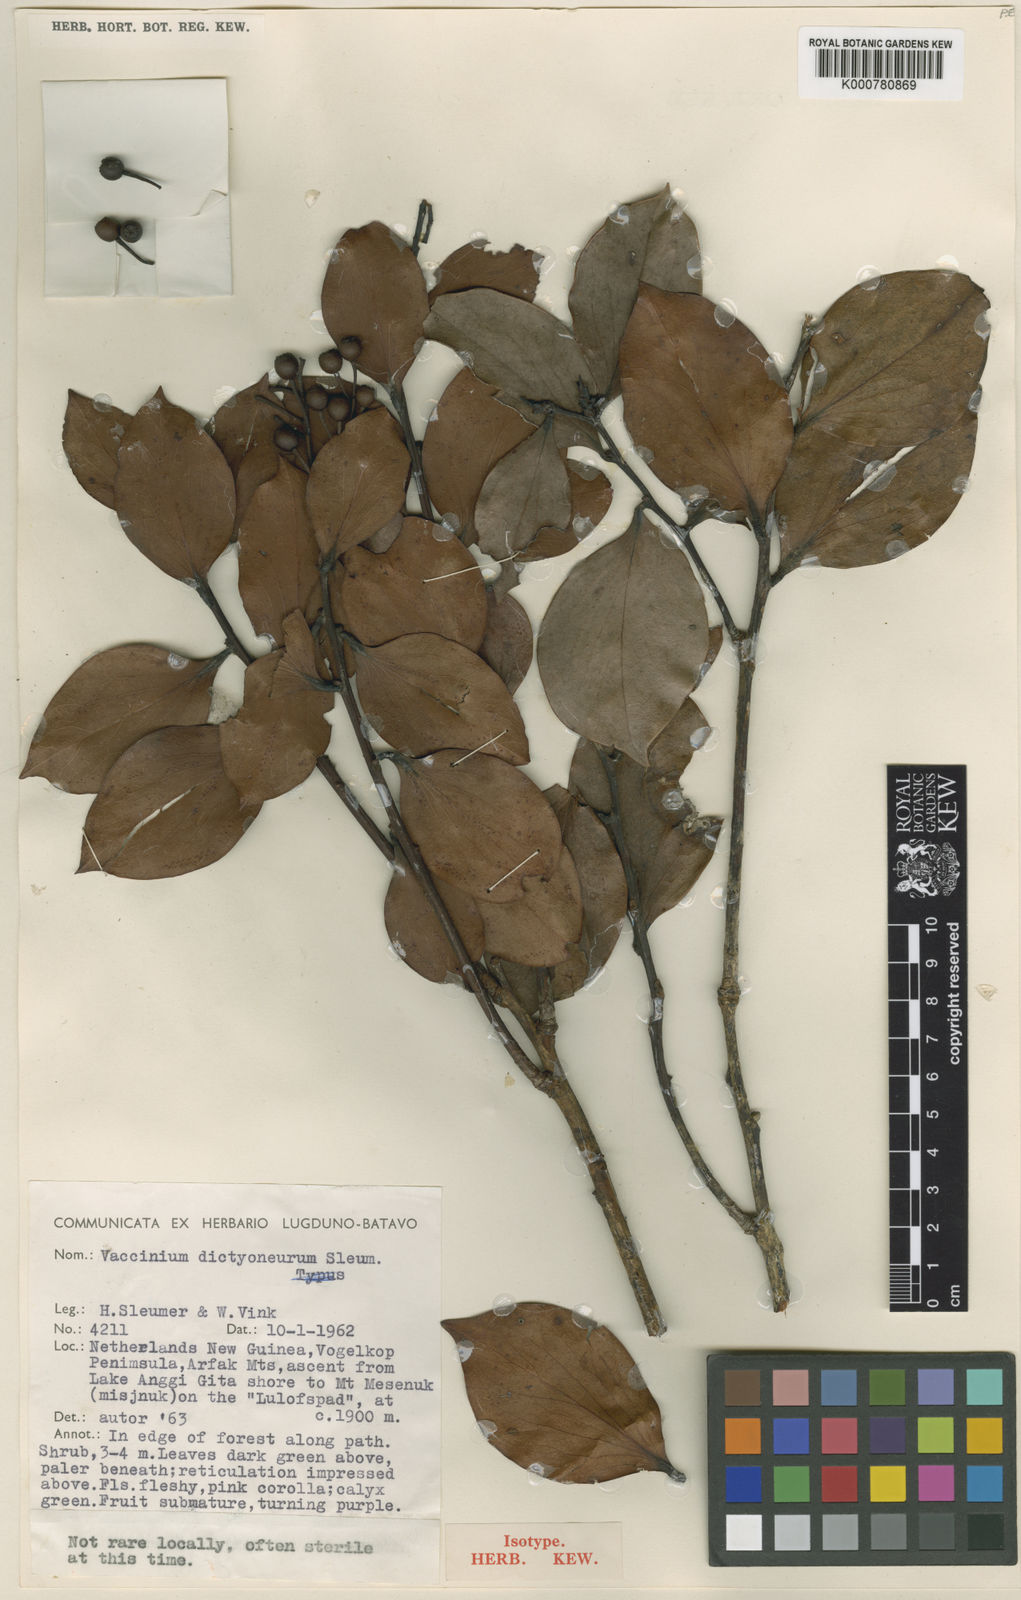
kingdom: Plantae
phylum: Tracheophyta
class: Magnoliopsida
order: Ericales
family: Ericaceae
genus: Vaccinium
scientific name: Vaccinium dictyoneuron
